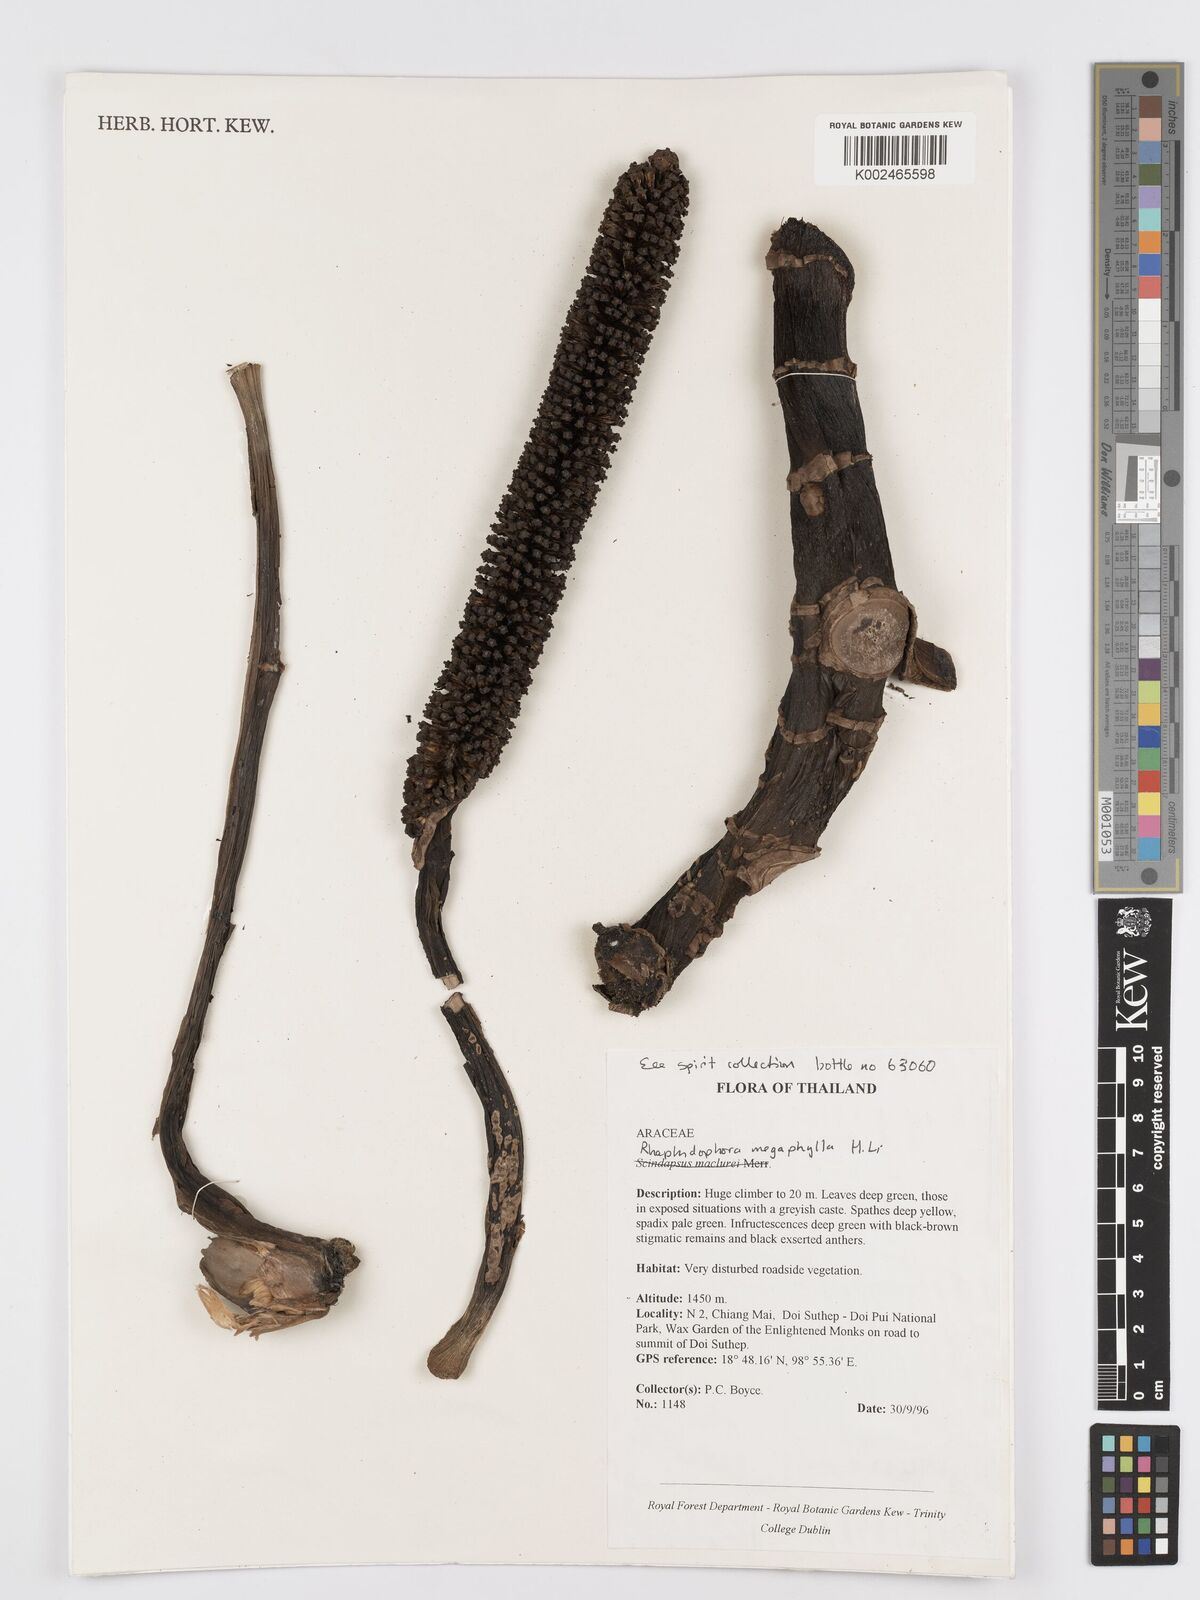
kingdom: Plantae
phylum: Tracheophyta
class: Liliopsida
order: Alismatales
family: Araceae
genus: Rhaphidophora
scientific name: Rhaphidophora megaphylla
